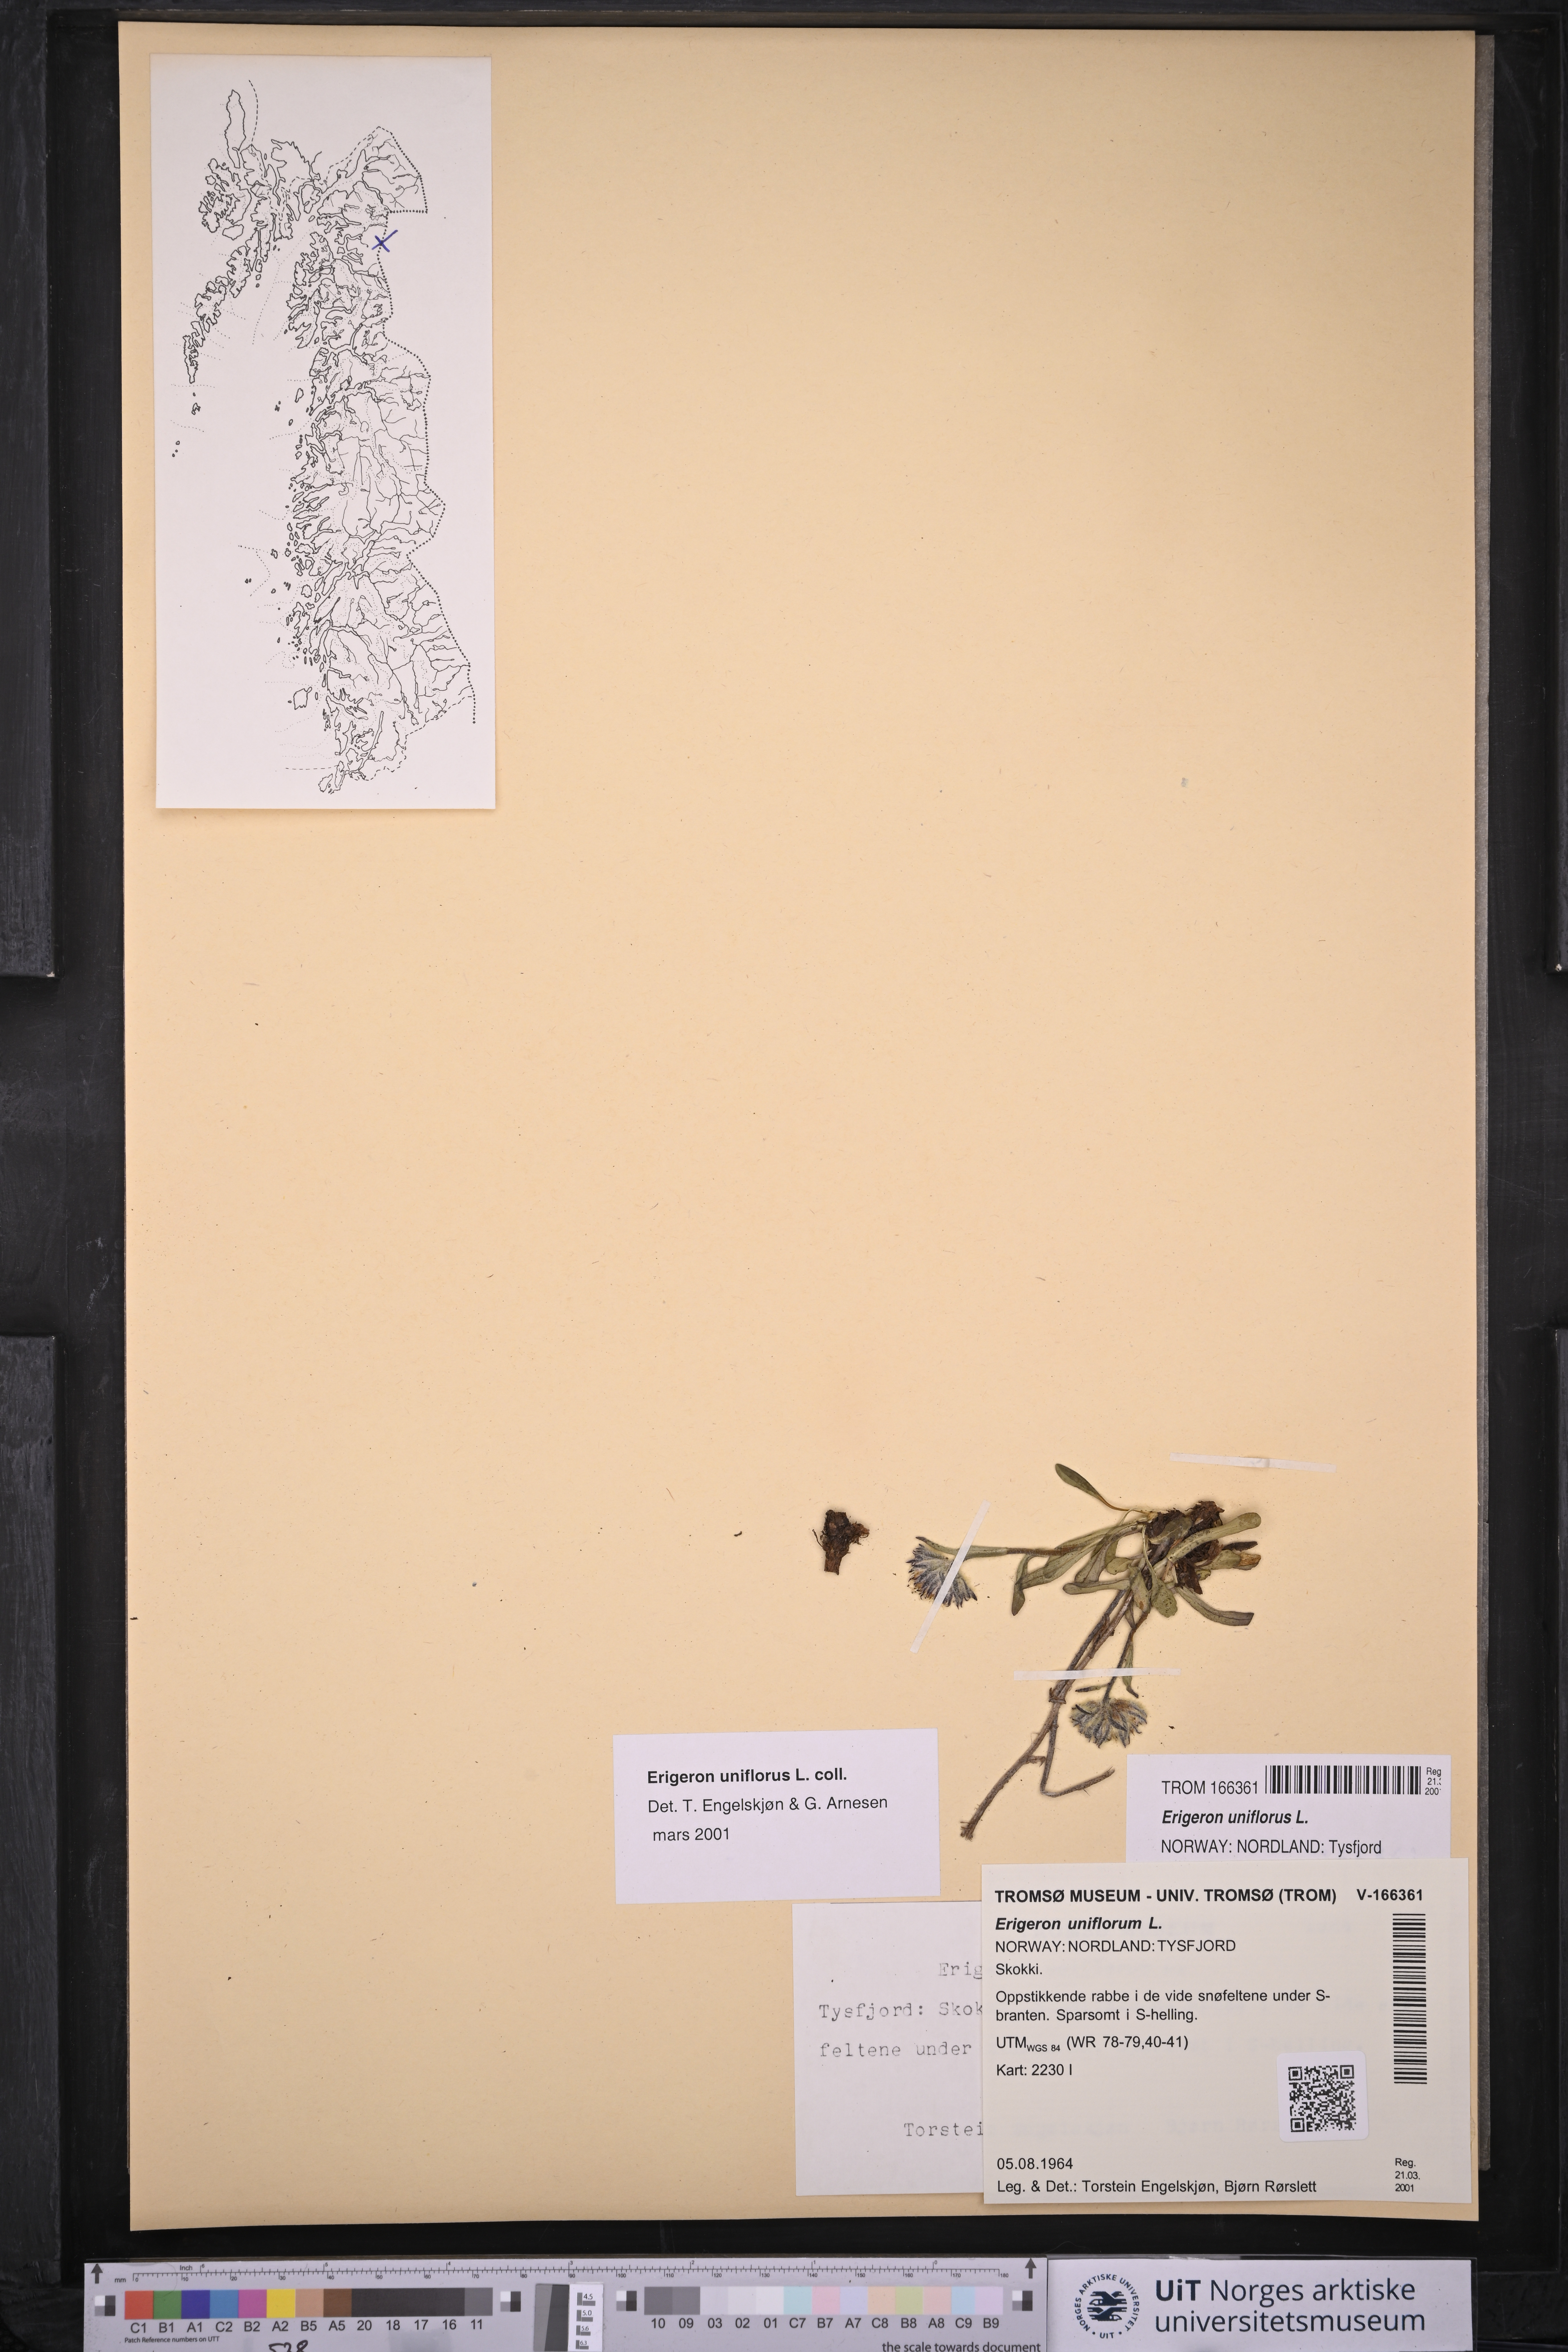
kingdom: Plantae
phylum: Tracheophyta
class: Magnoliopsida
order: Asterales
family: Asteraceae
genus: Erigeron
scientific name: Erigeron uniflorus
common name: Northern daisy
